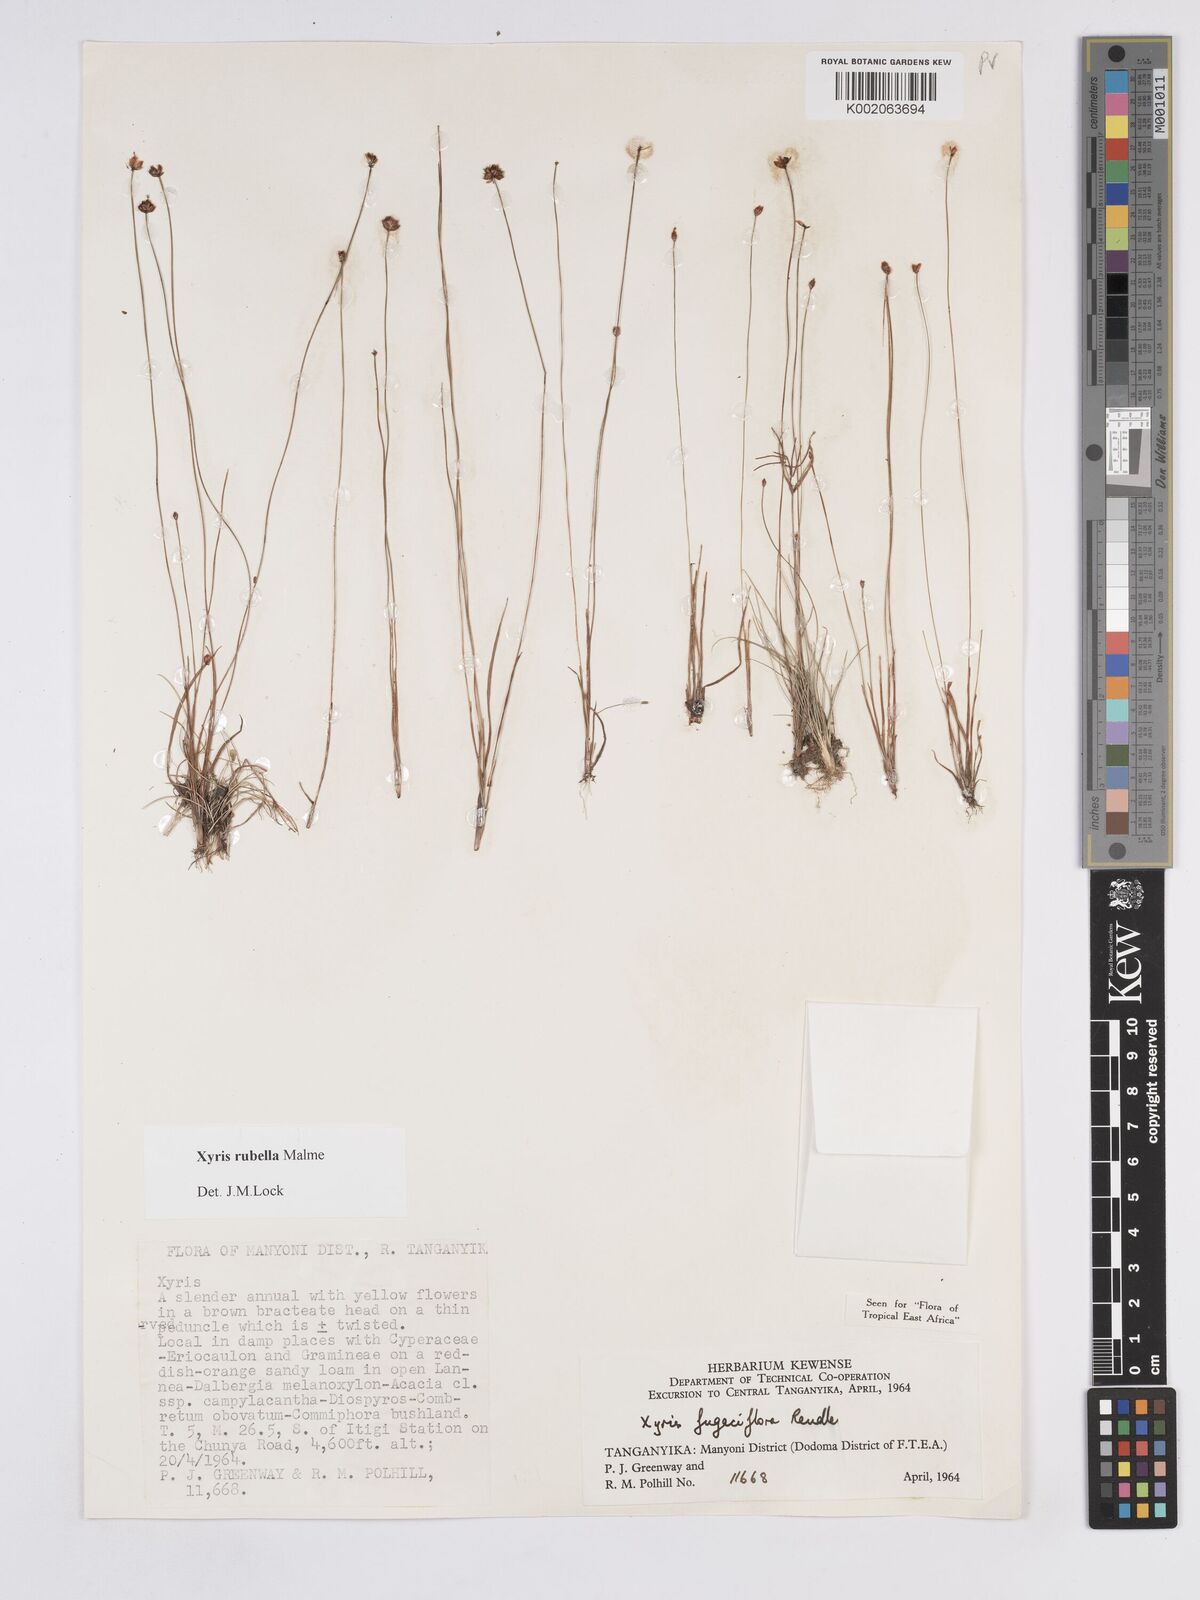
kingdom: Plantae
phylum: Tracheophyta
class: Liliopsida
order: Poales
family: Xyridaceae
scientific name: Xyridaceae
